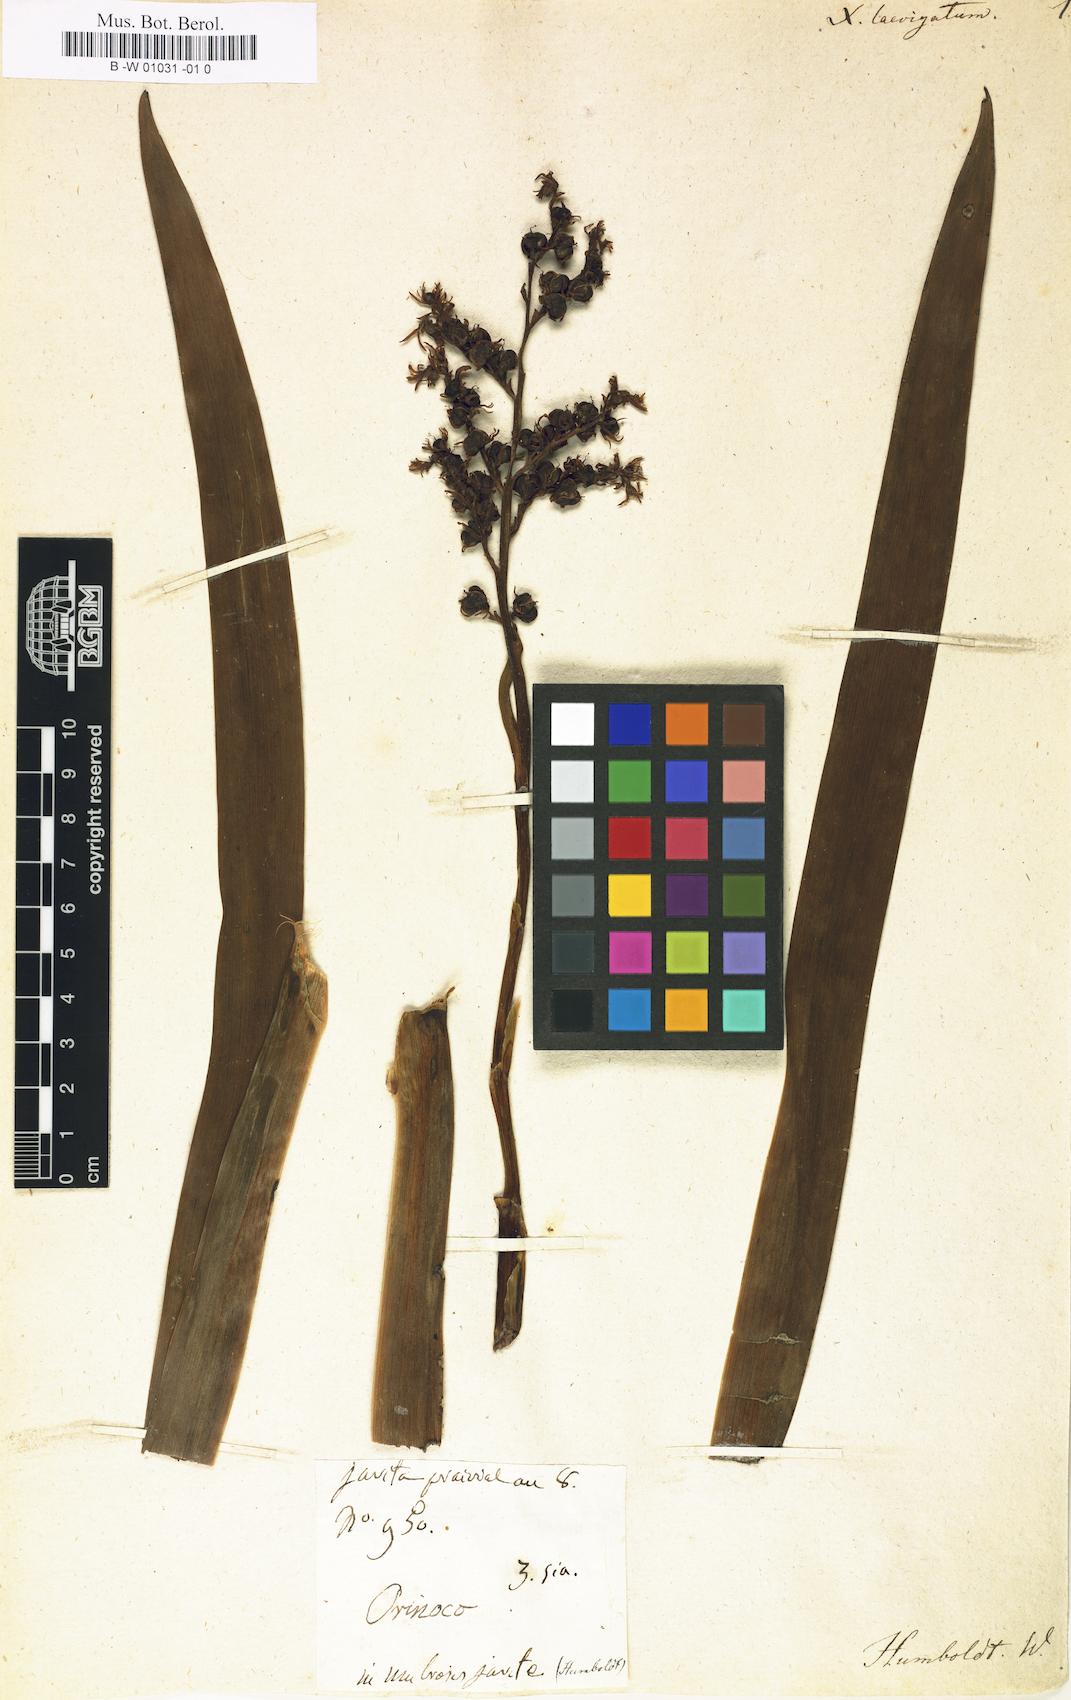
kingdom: Plantae
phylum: Tracheophyta
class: Liliopsida
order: Commelinales
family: Haemodoraceae
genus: Xiphidium
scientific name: Xiphidium
